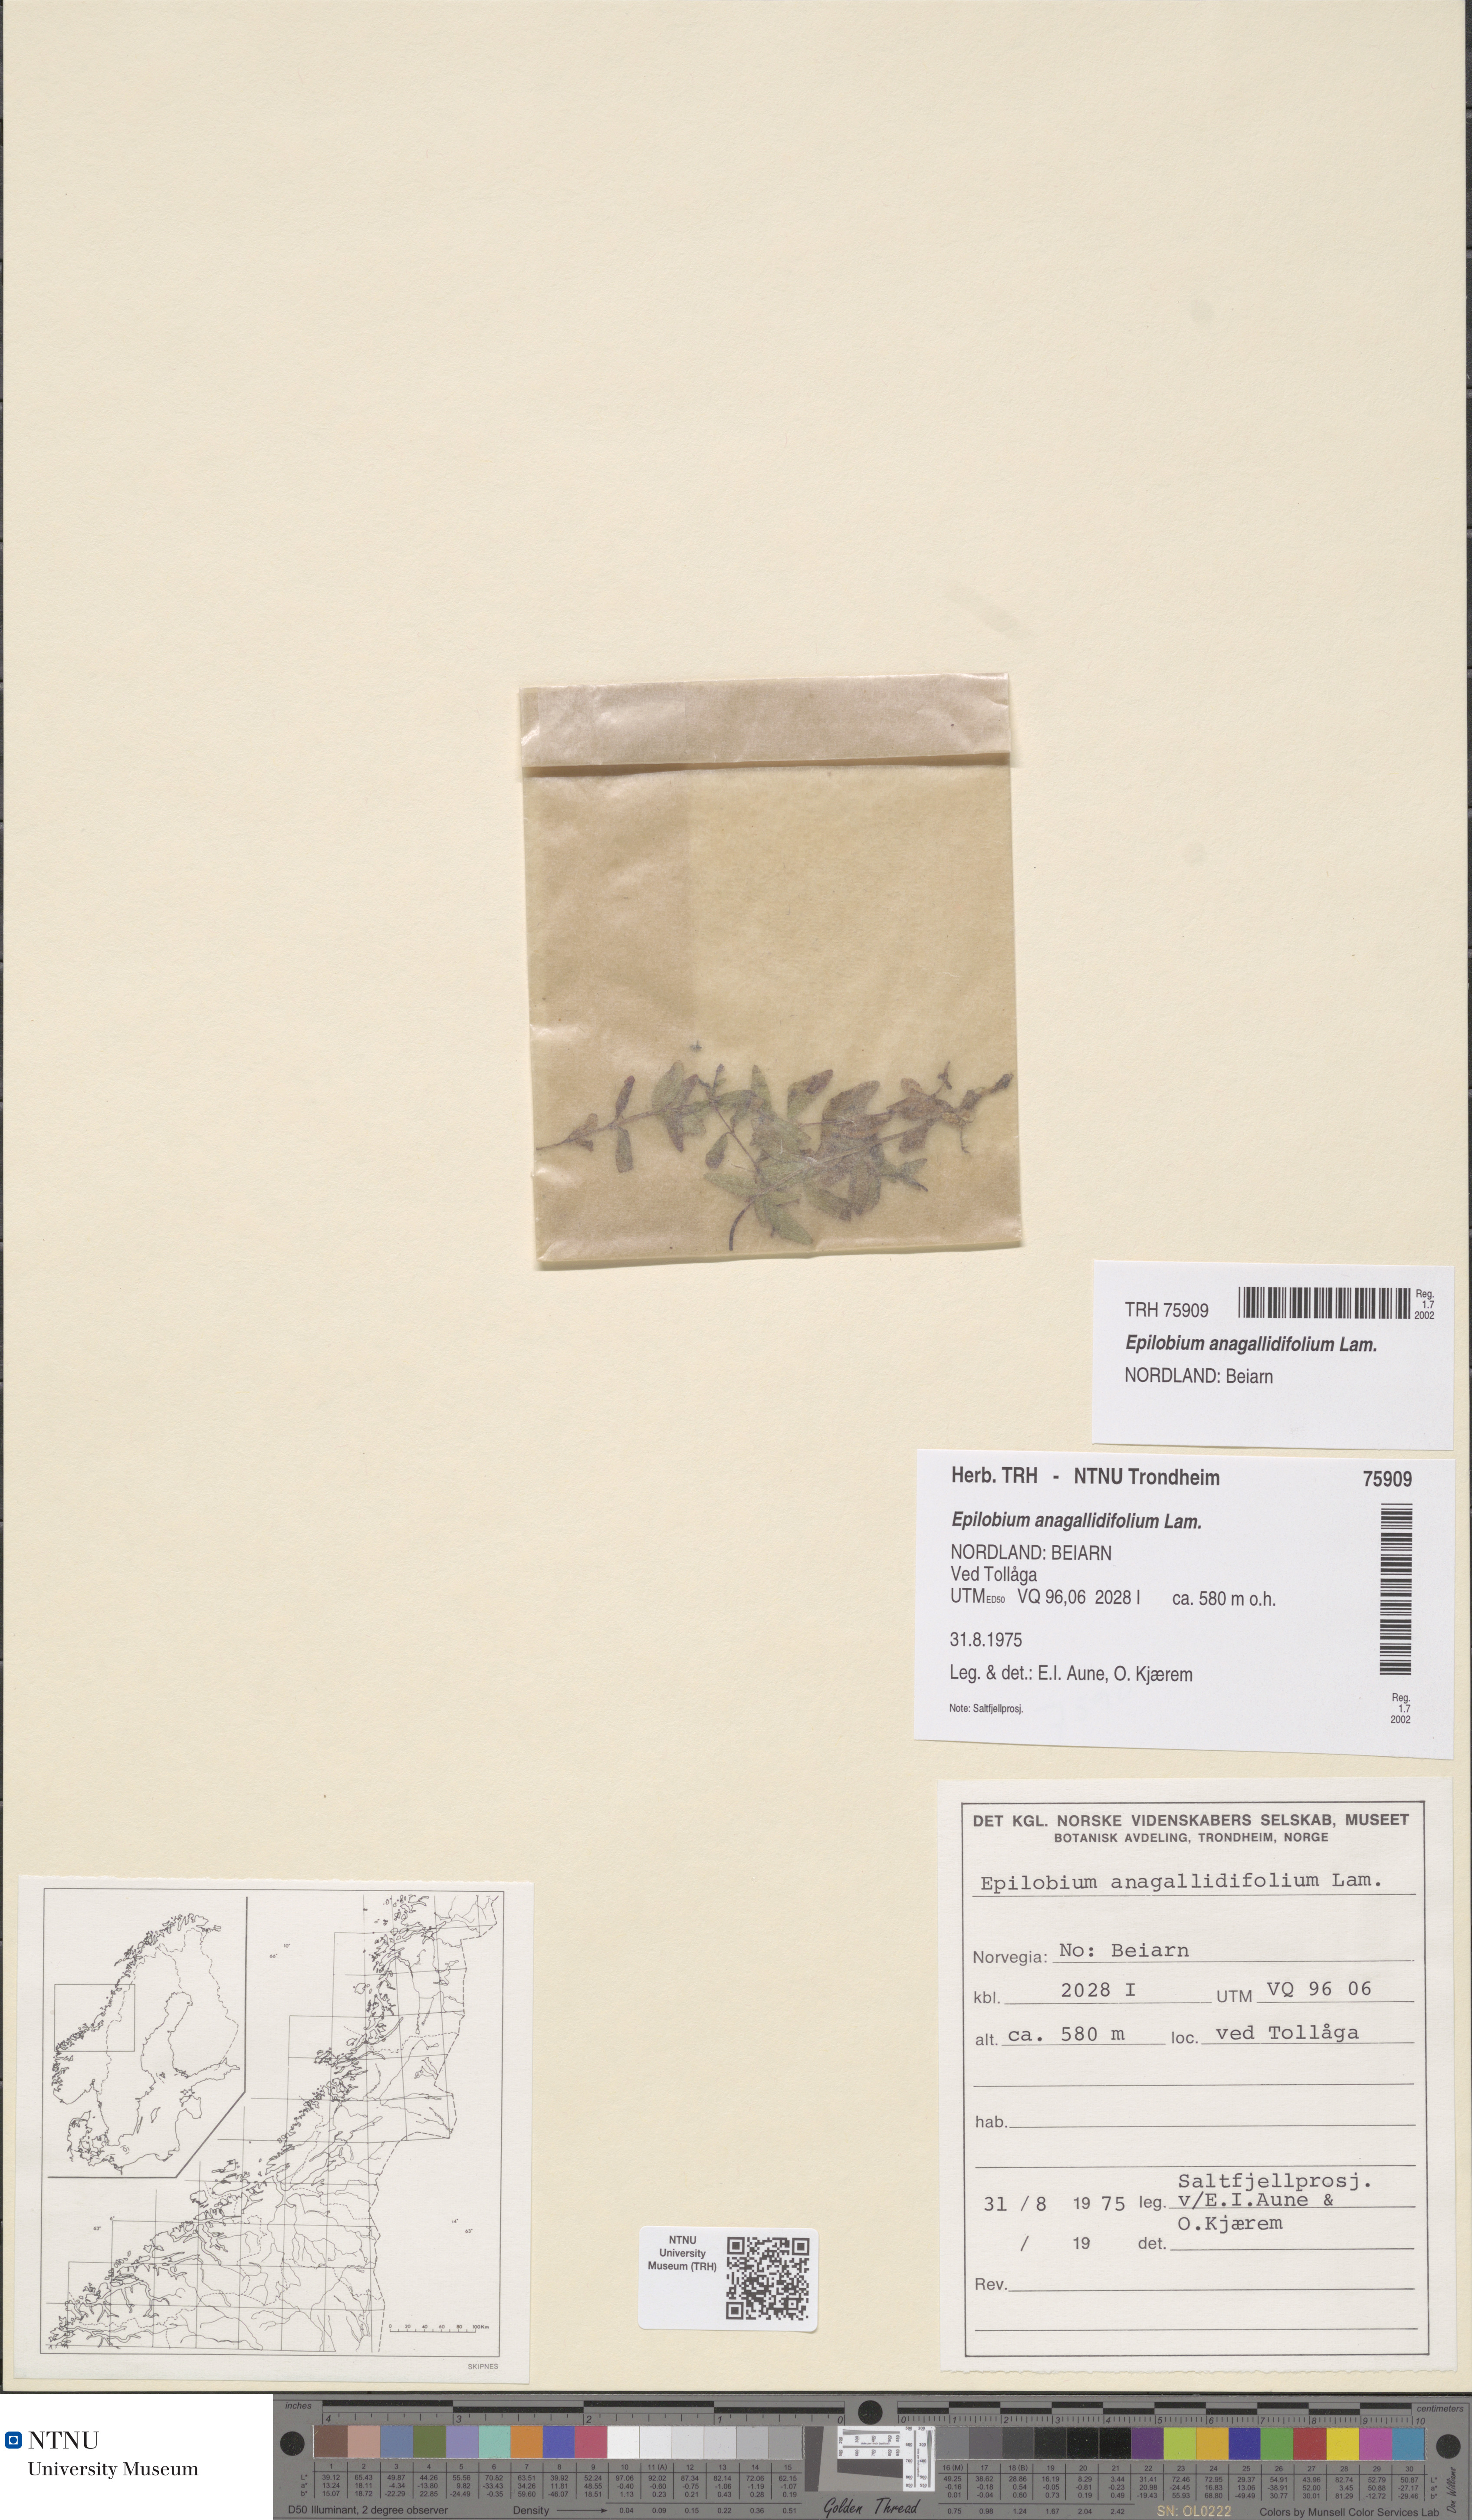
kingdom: Plantae
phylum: Tracheophyta
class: Magnoliopsida
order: Myrtales
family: Onagraceae
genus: Epilobium
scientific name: Epilobium anagallidifolium
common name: Alpine willowherb
